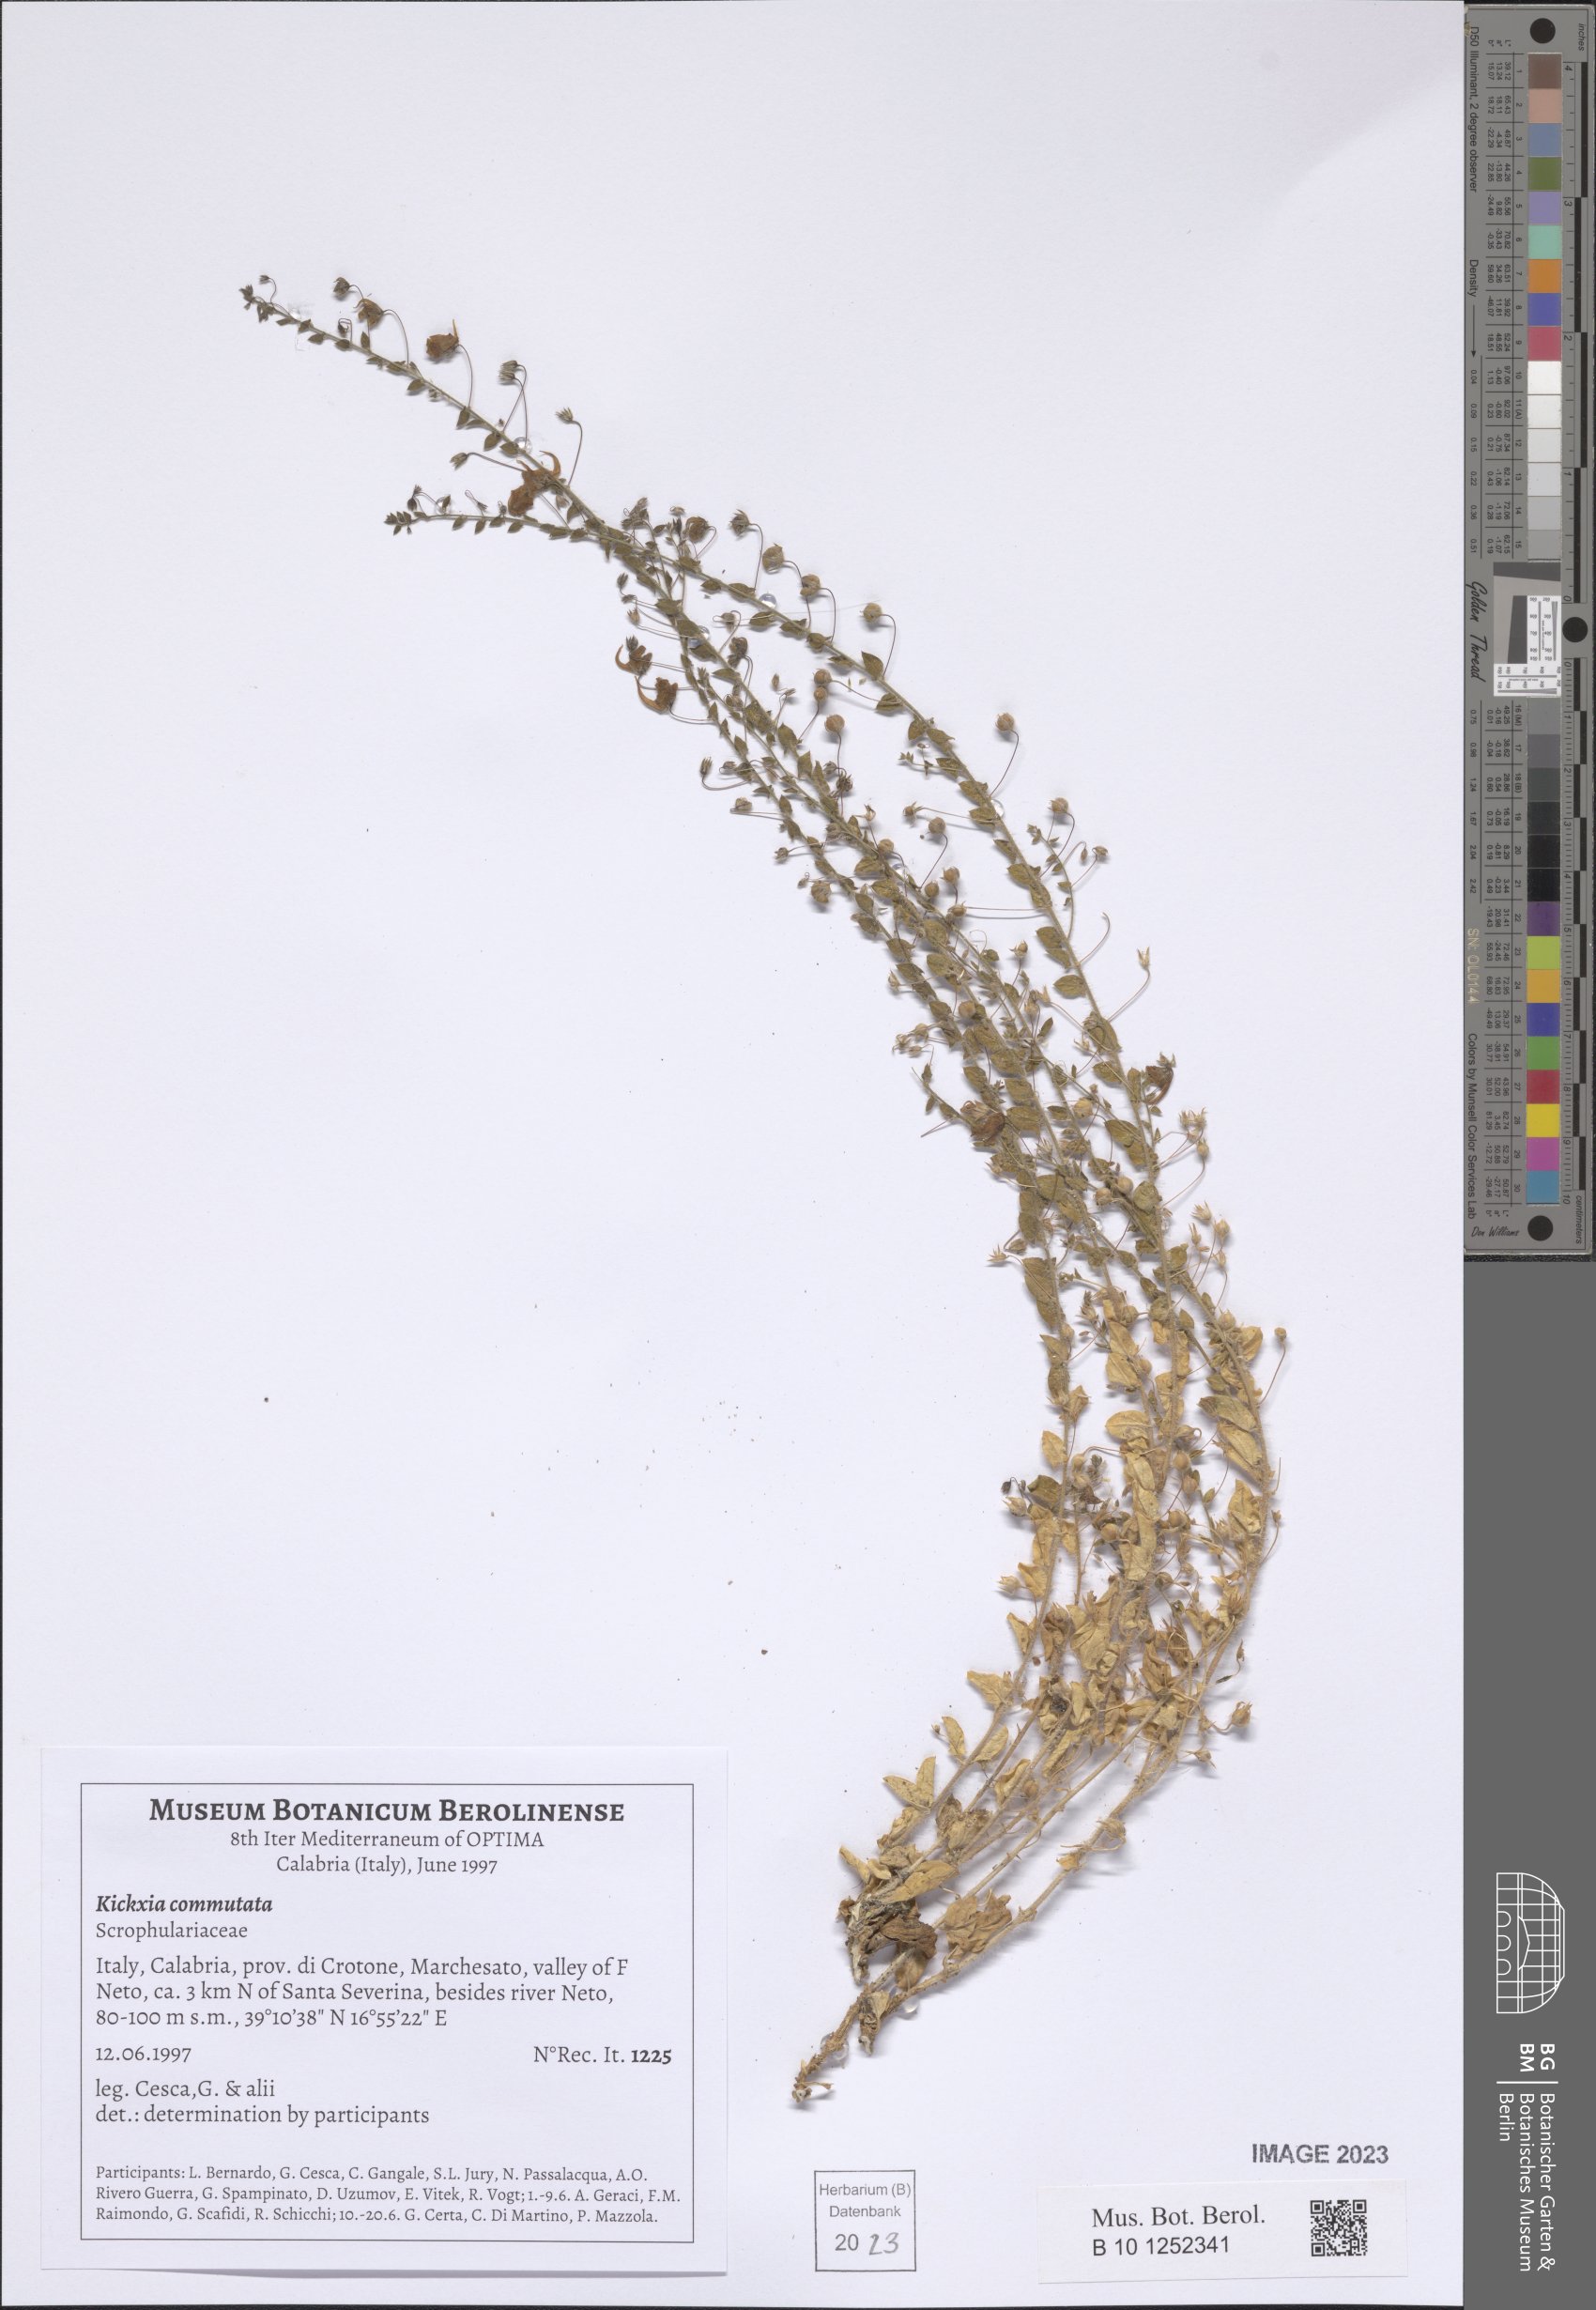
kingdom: Plantae
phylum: Tracheophyta
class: Magnoliopsida
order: Lamiales
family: Plantaginaceae
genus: Kickxia
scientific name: Kickxia commutata
